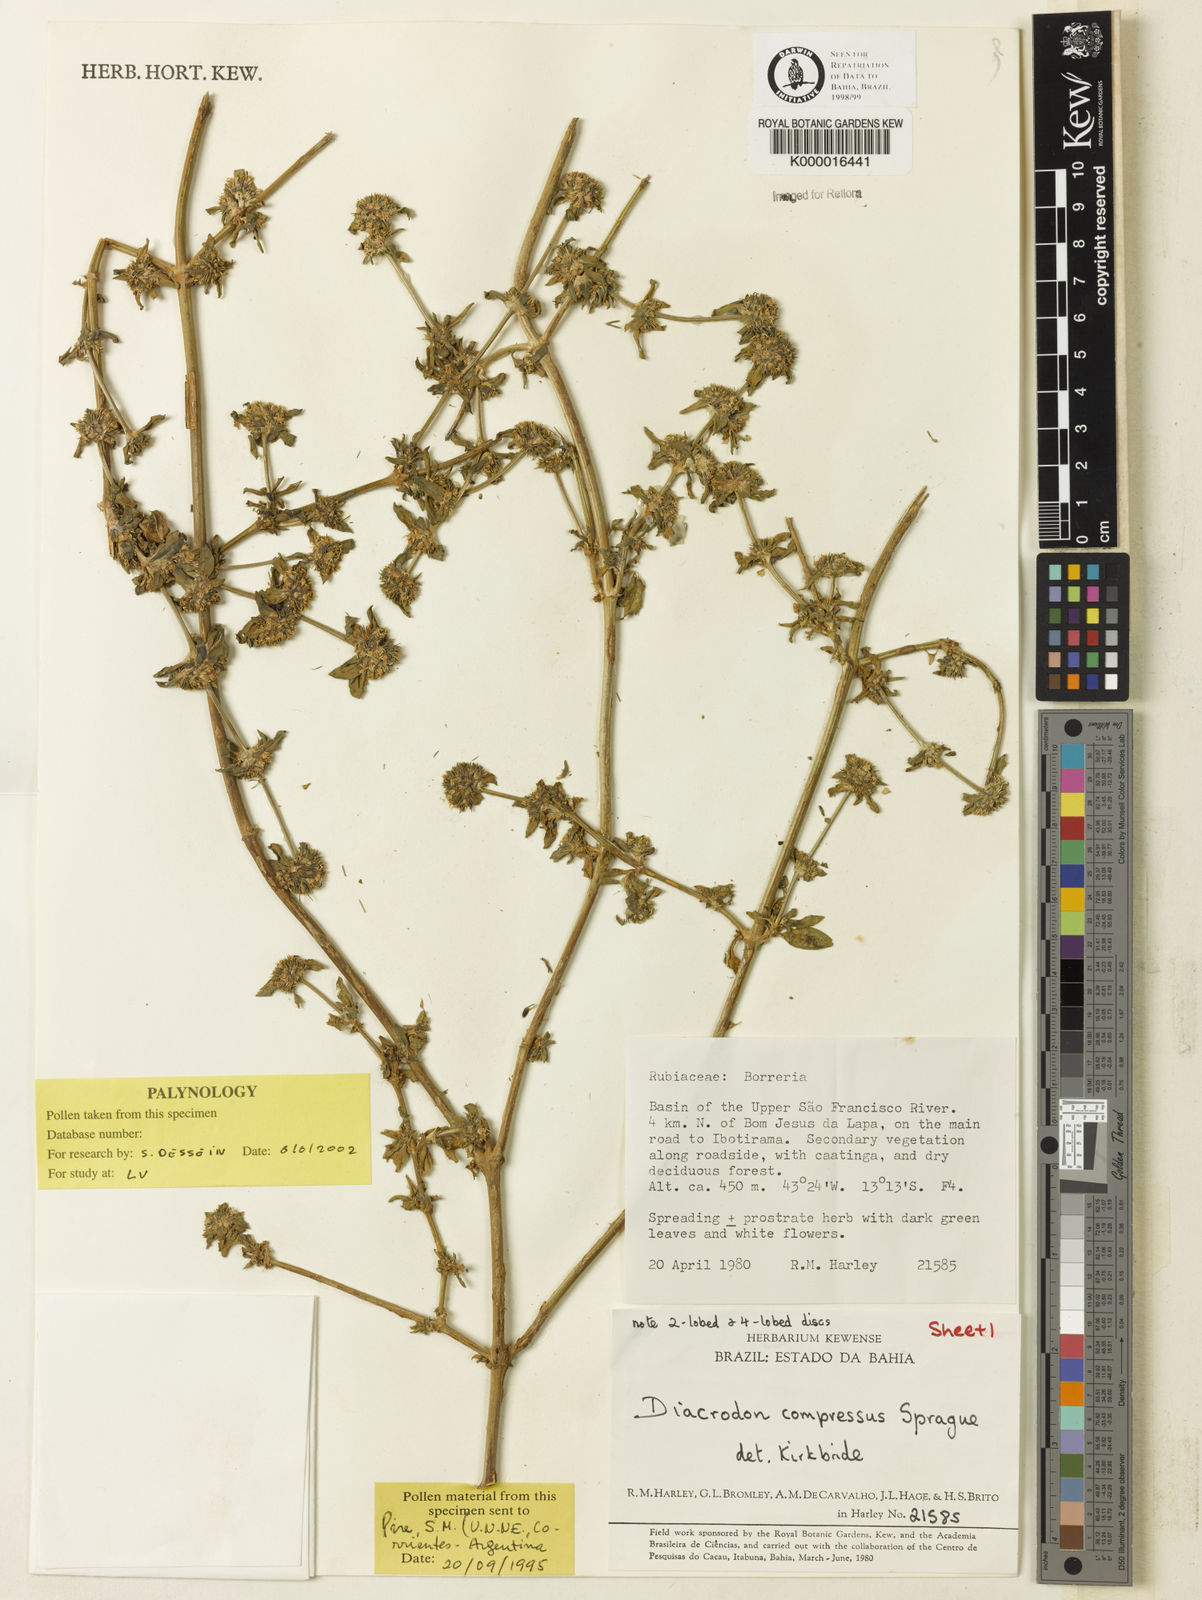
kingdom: Plantae
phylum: Tracheophyta
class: Magnoliopsida
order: Gentianales
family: Rubiaceae
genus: Diacrodon
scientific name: Diacrodon compressus
